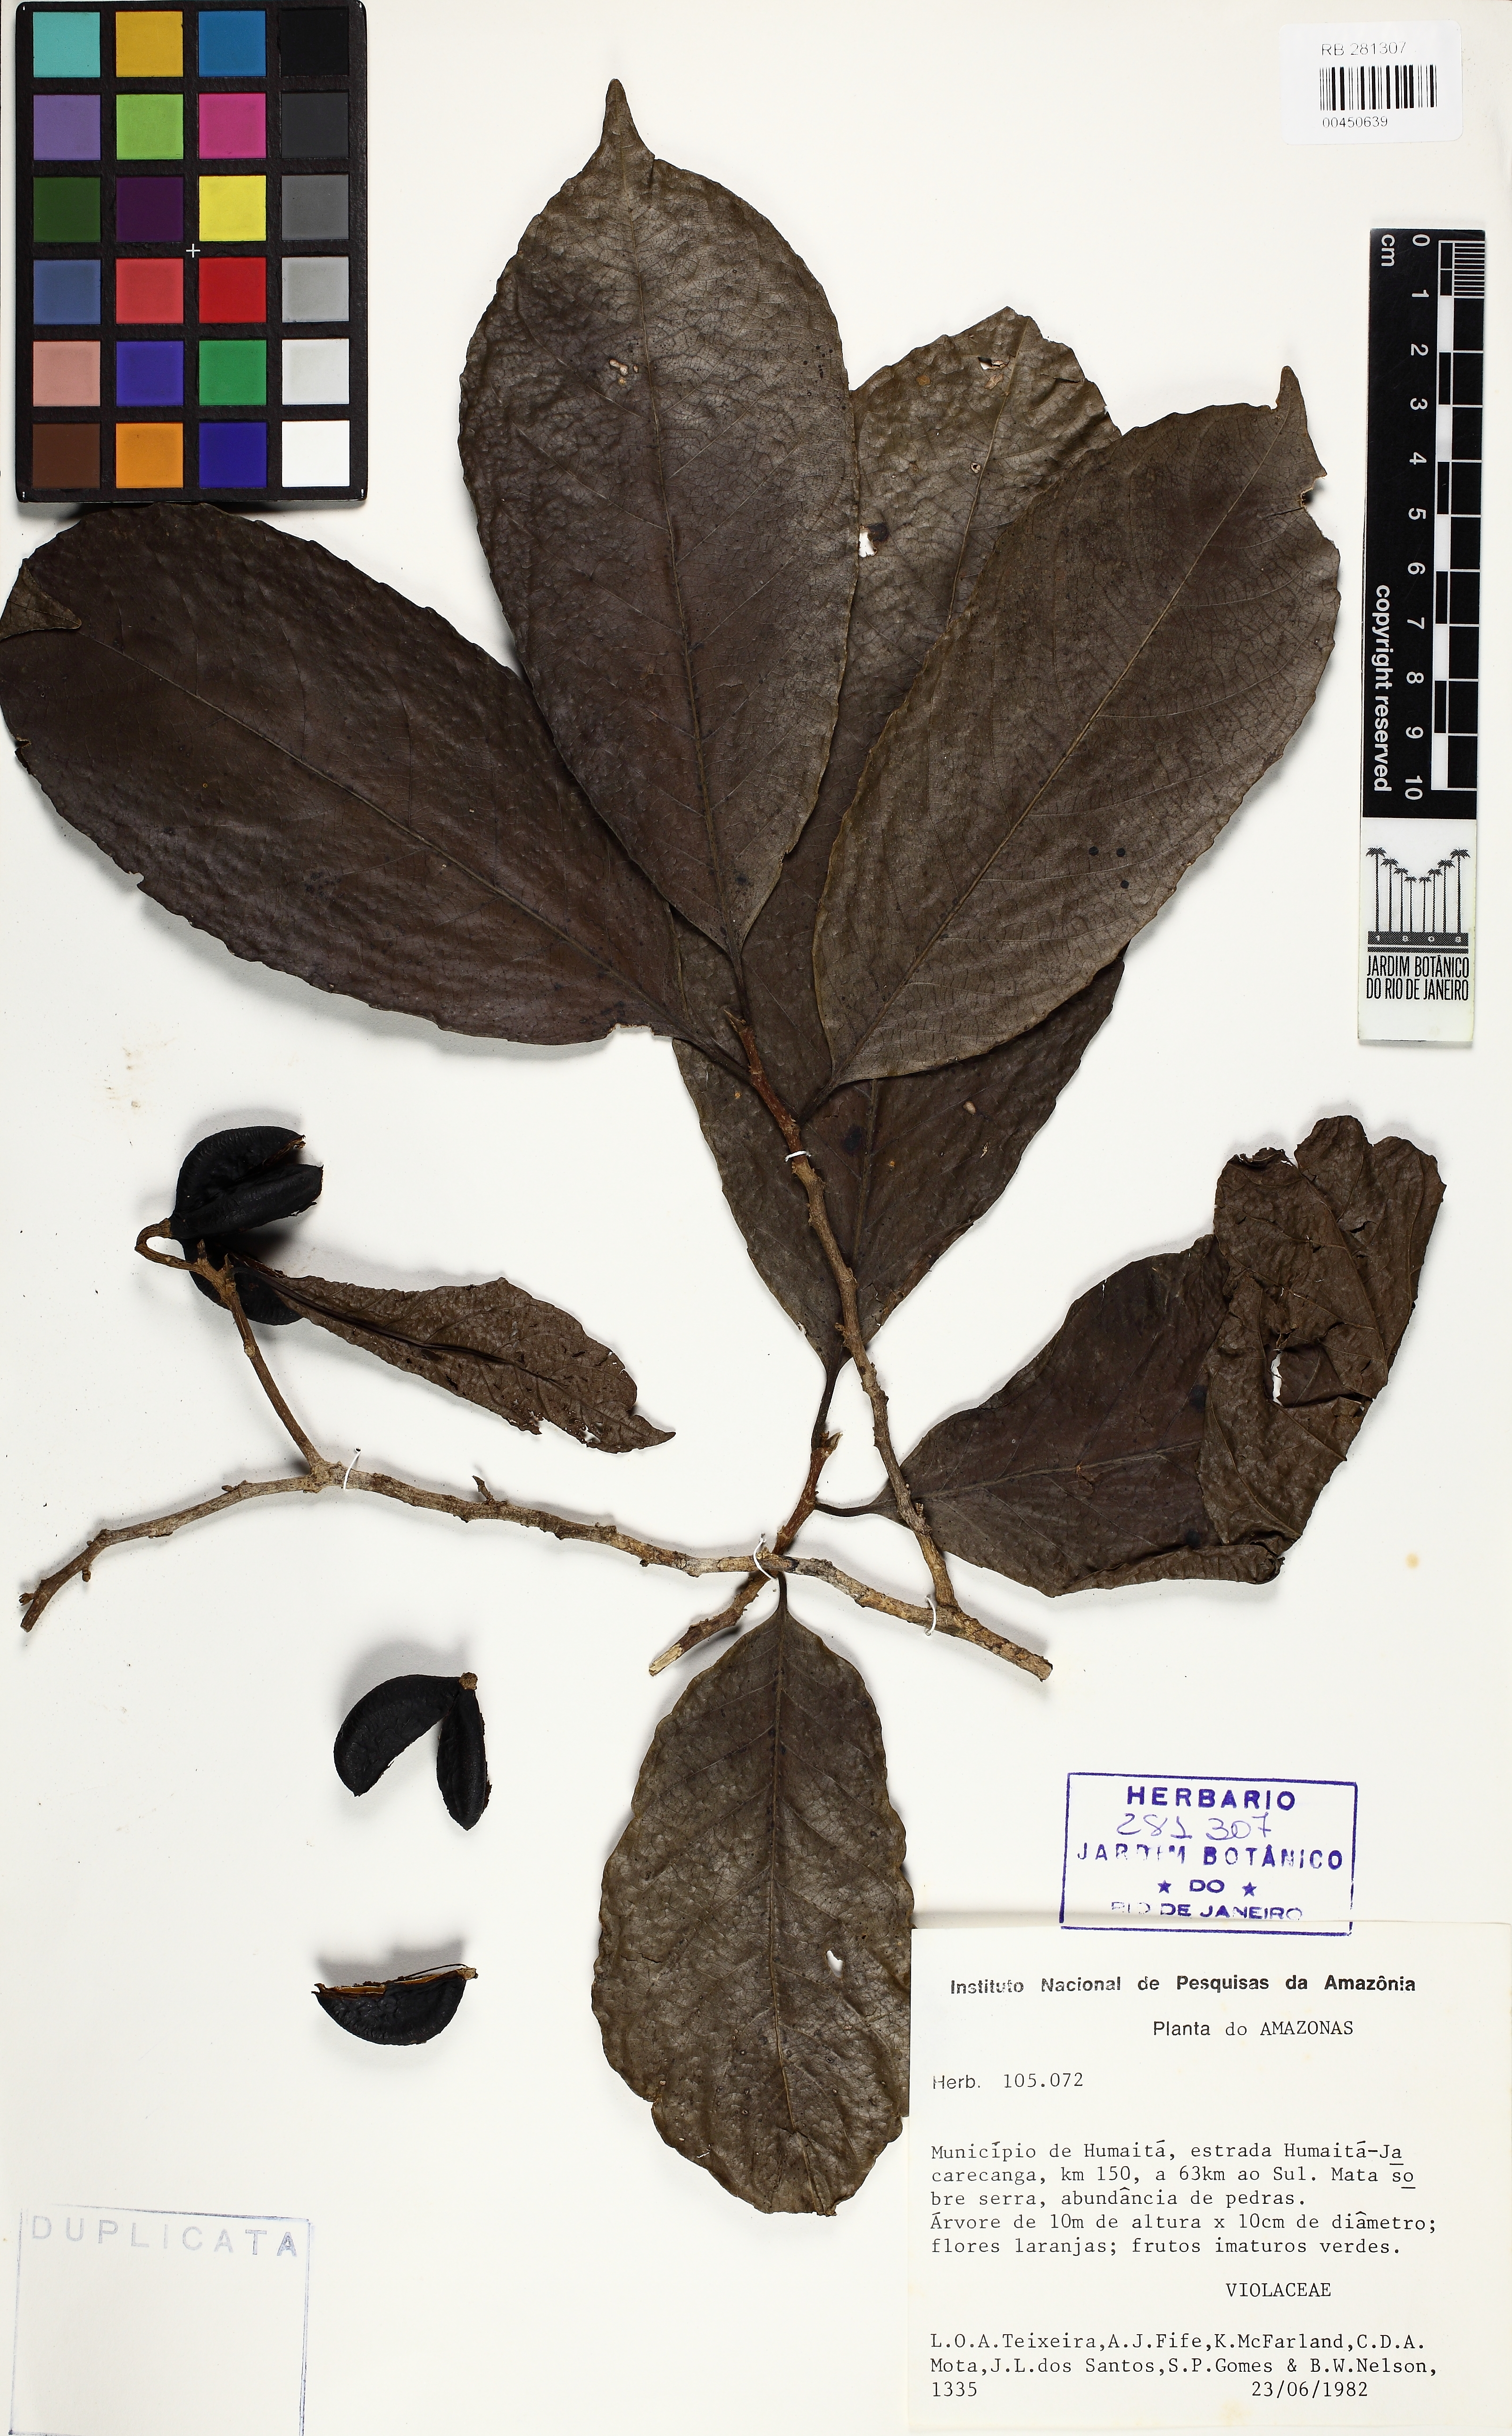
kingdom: Plantae
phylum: Tracheophyta
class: Magnoliopsida
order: Malpighiales
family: Violaceae
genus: Rinoreocarpus
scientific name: Rinoreocarpus ulei
